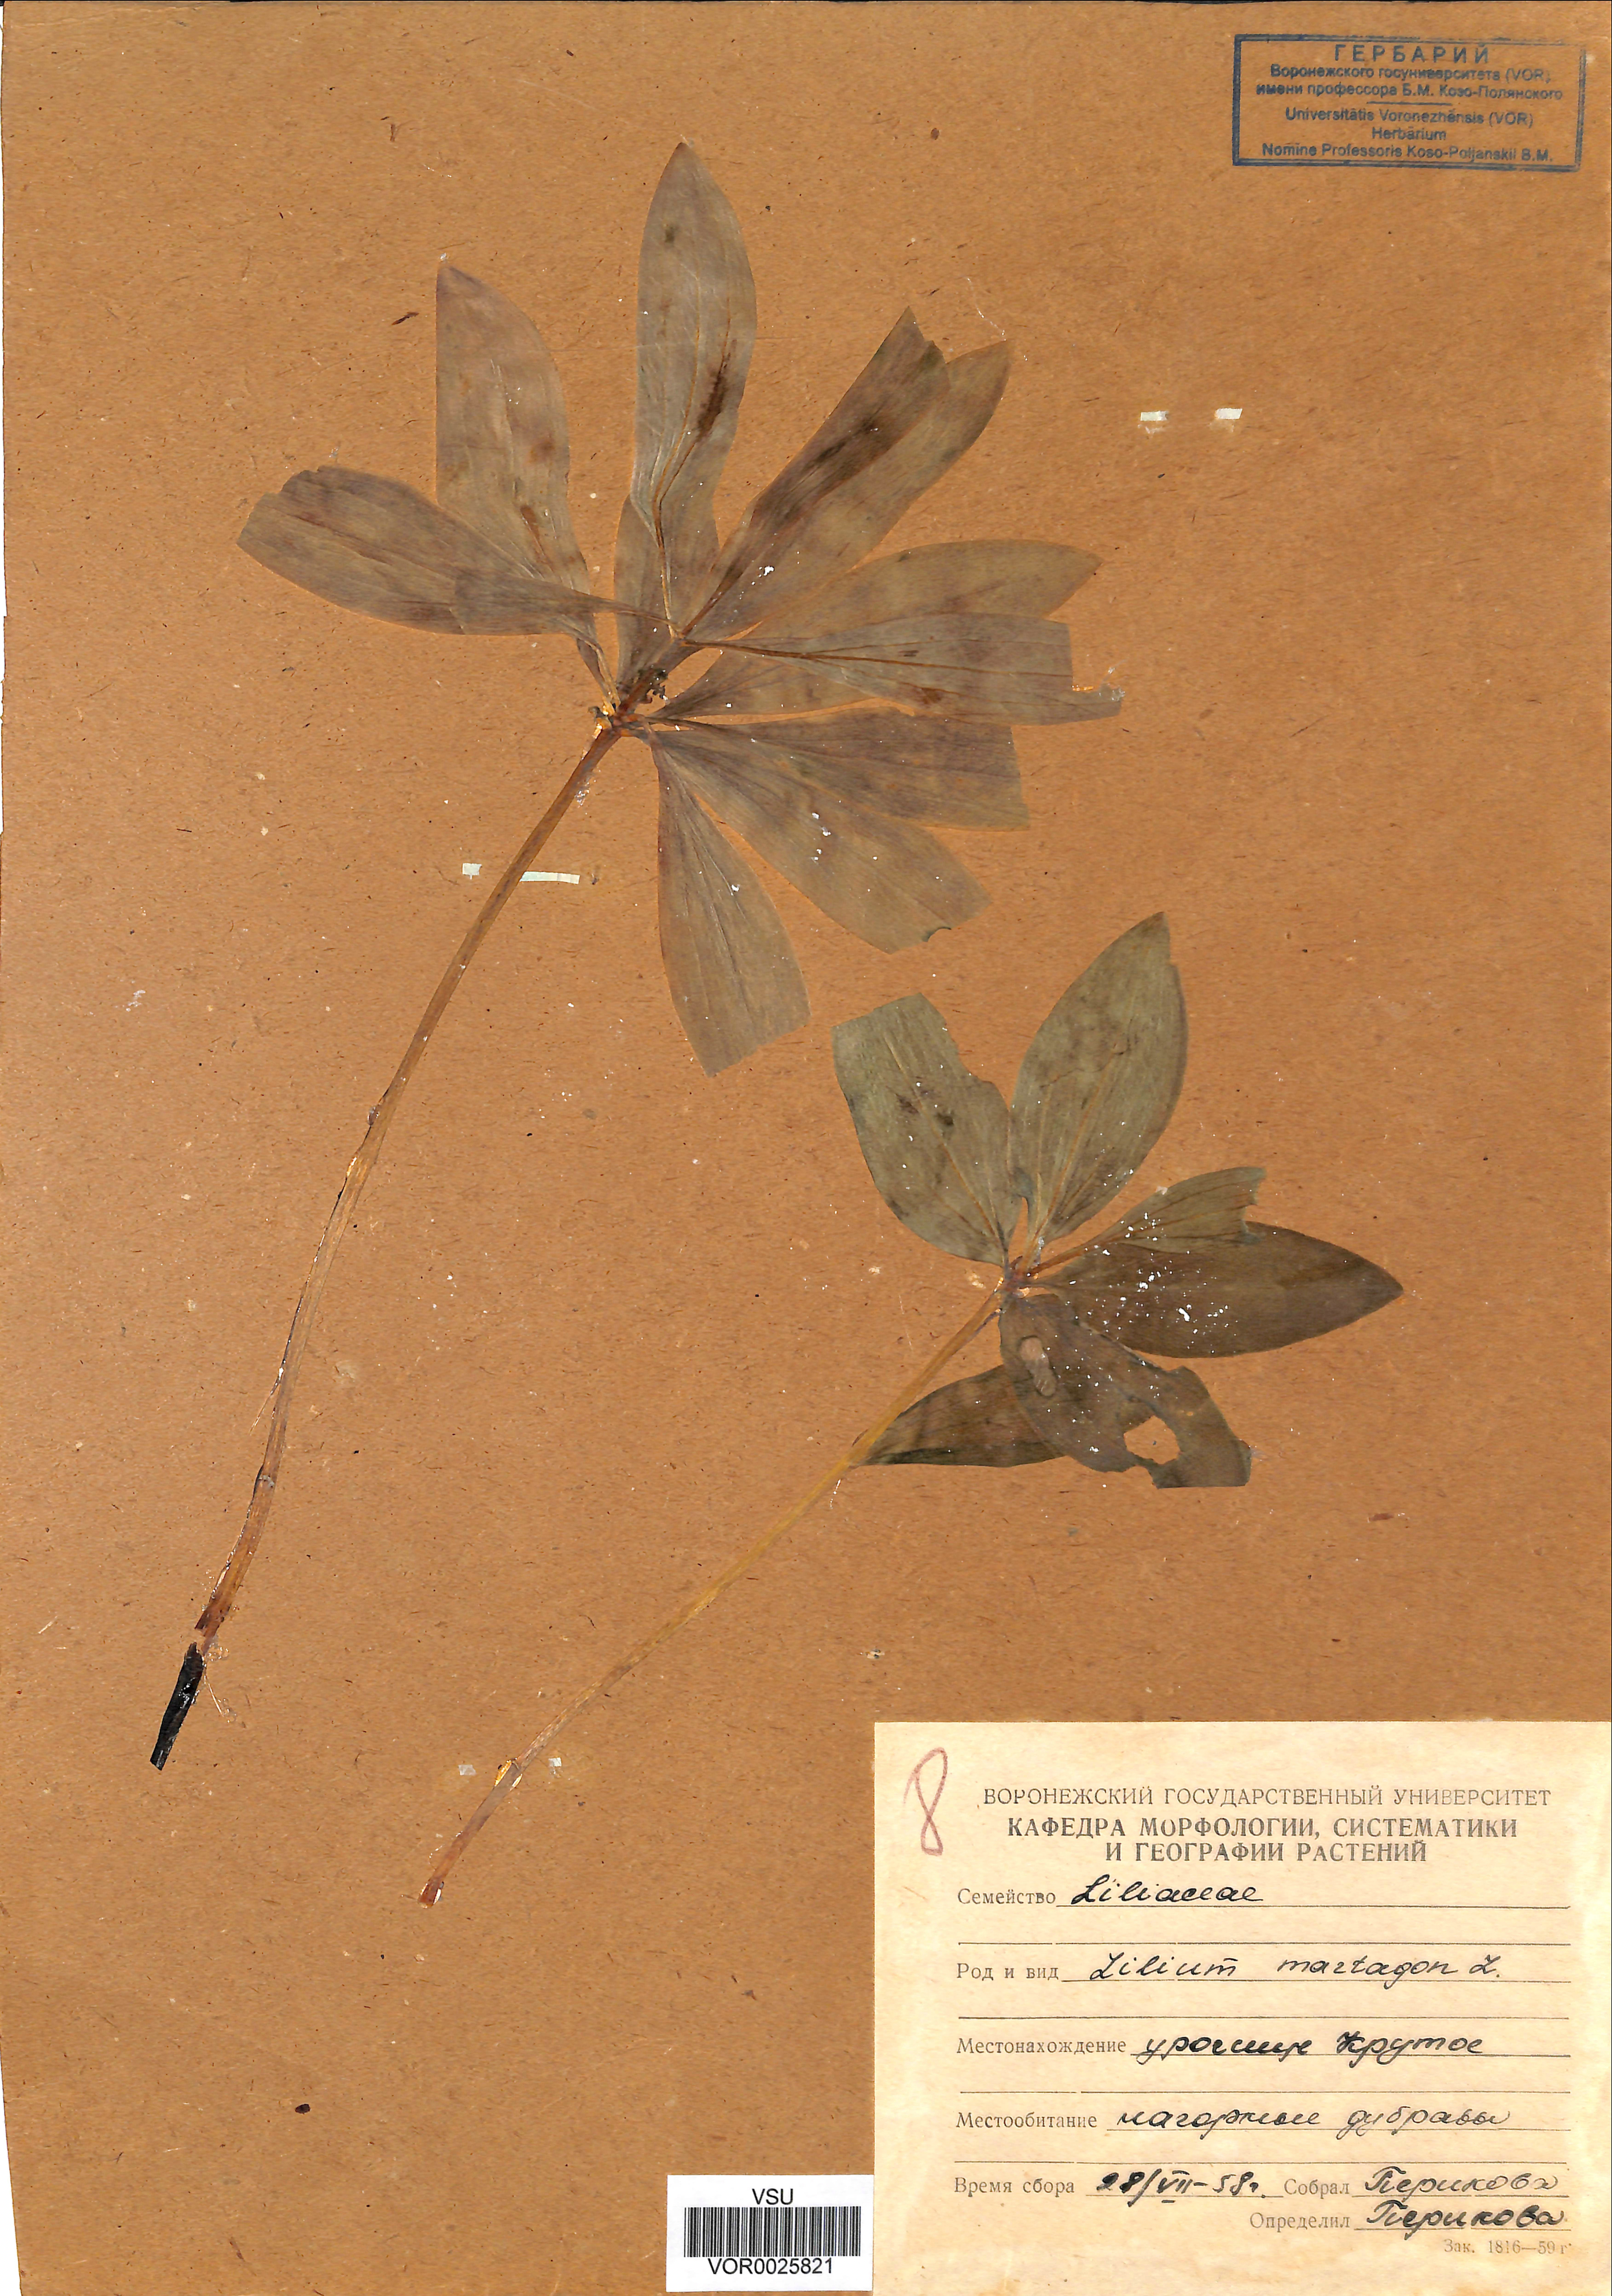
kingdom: Plantae
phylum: Tracheophyta
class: Liliopsida
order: Liliales
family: Liliaceae
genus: Lilium
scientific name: Lilium martagon
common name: Martagon lily
